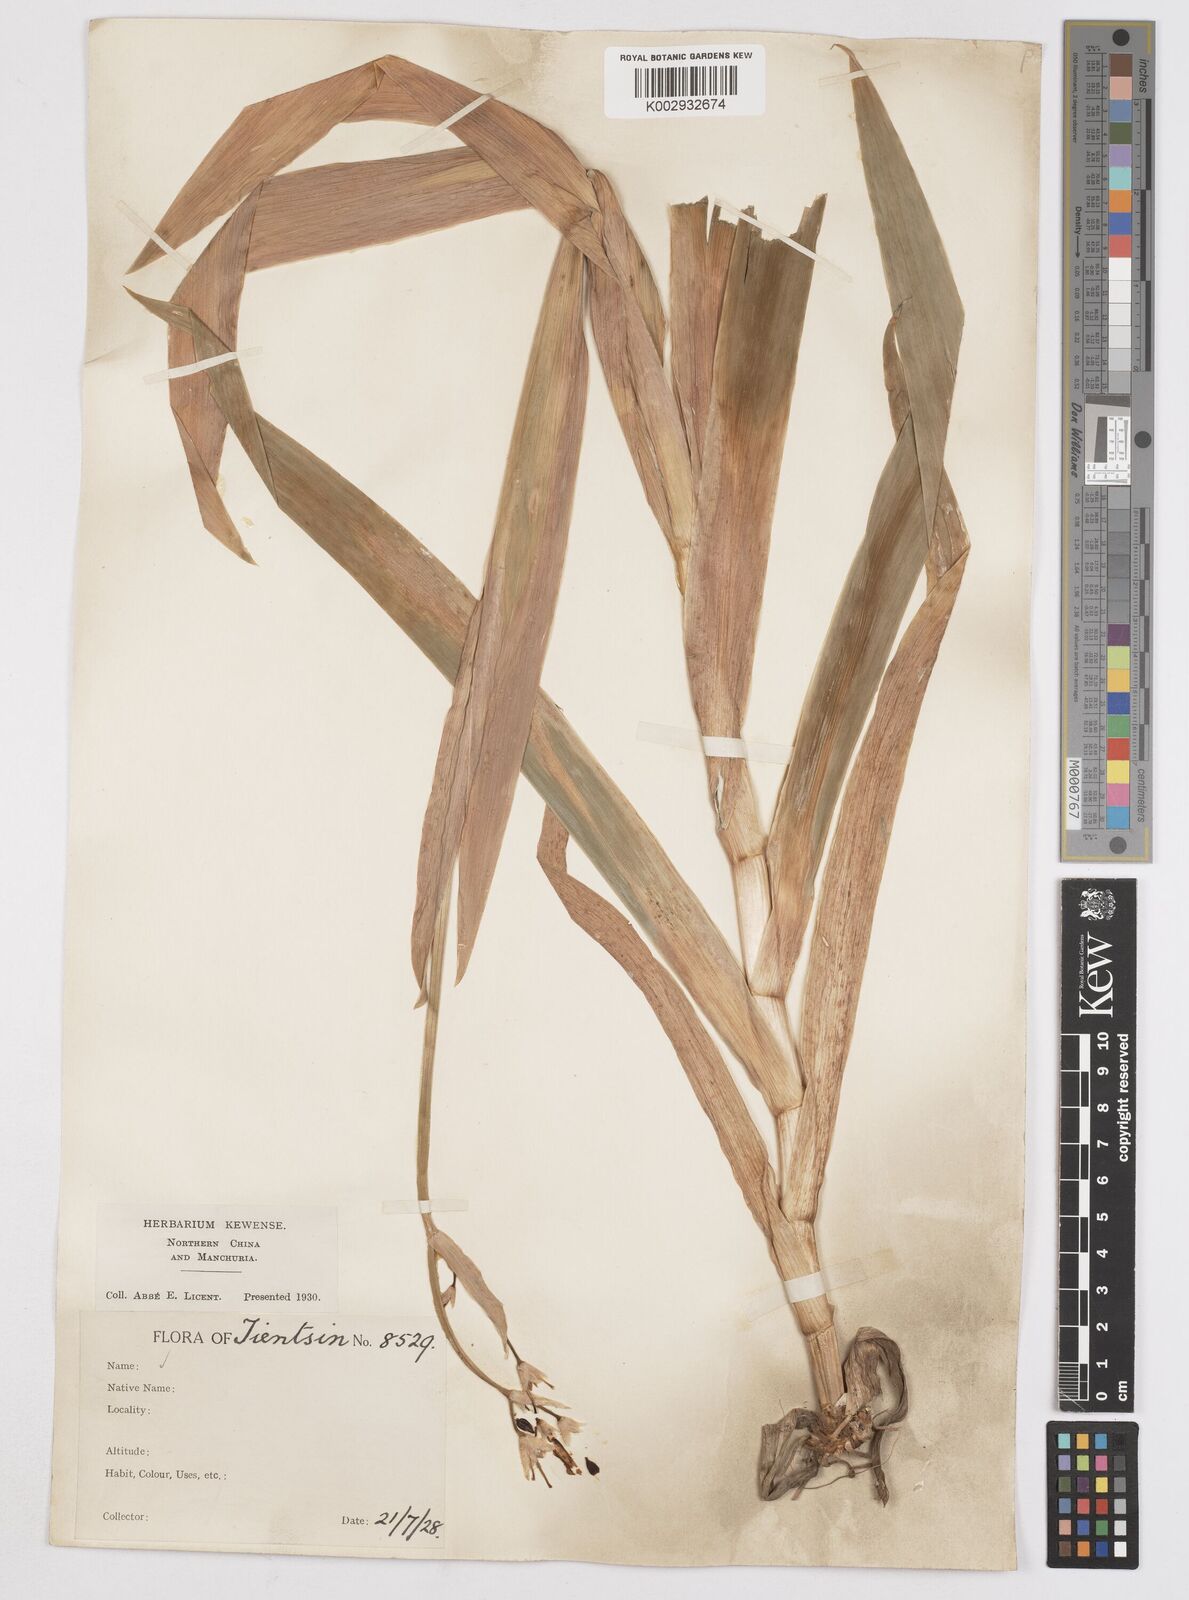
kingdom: Plantae
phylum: Tracheophyta
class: Liliopsida
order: Asparagales
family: Iridaceae
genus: Iris
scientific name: Iris
